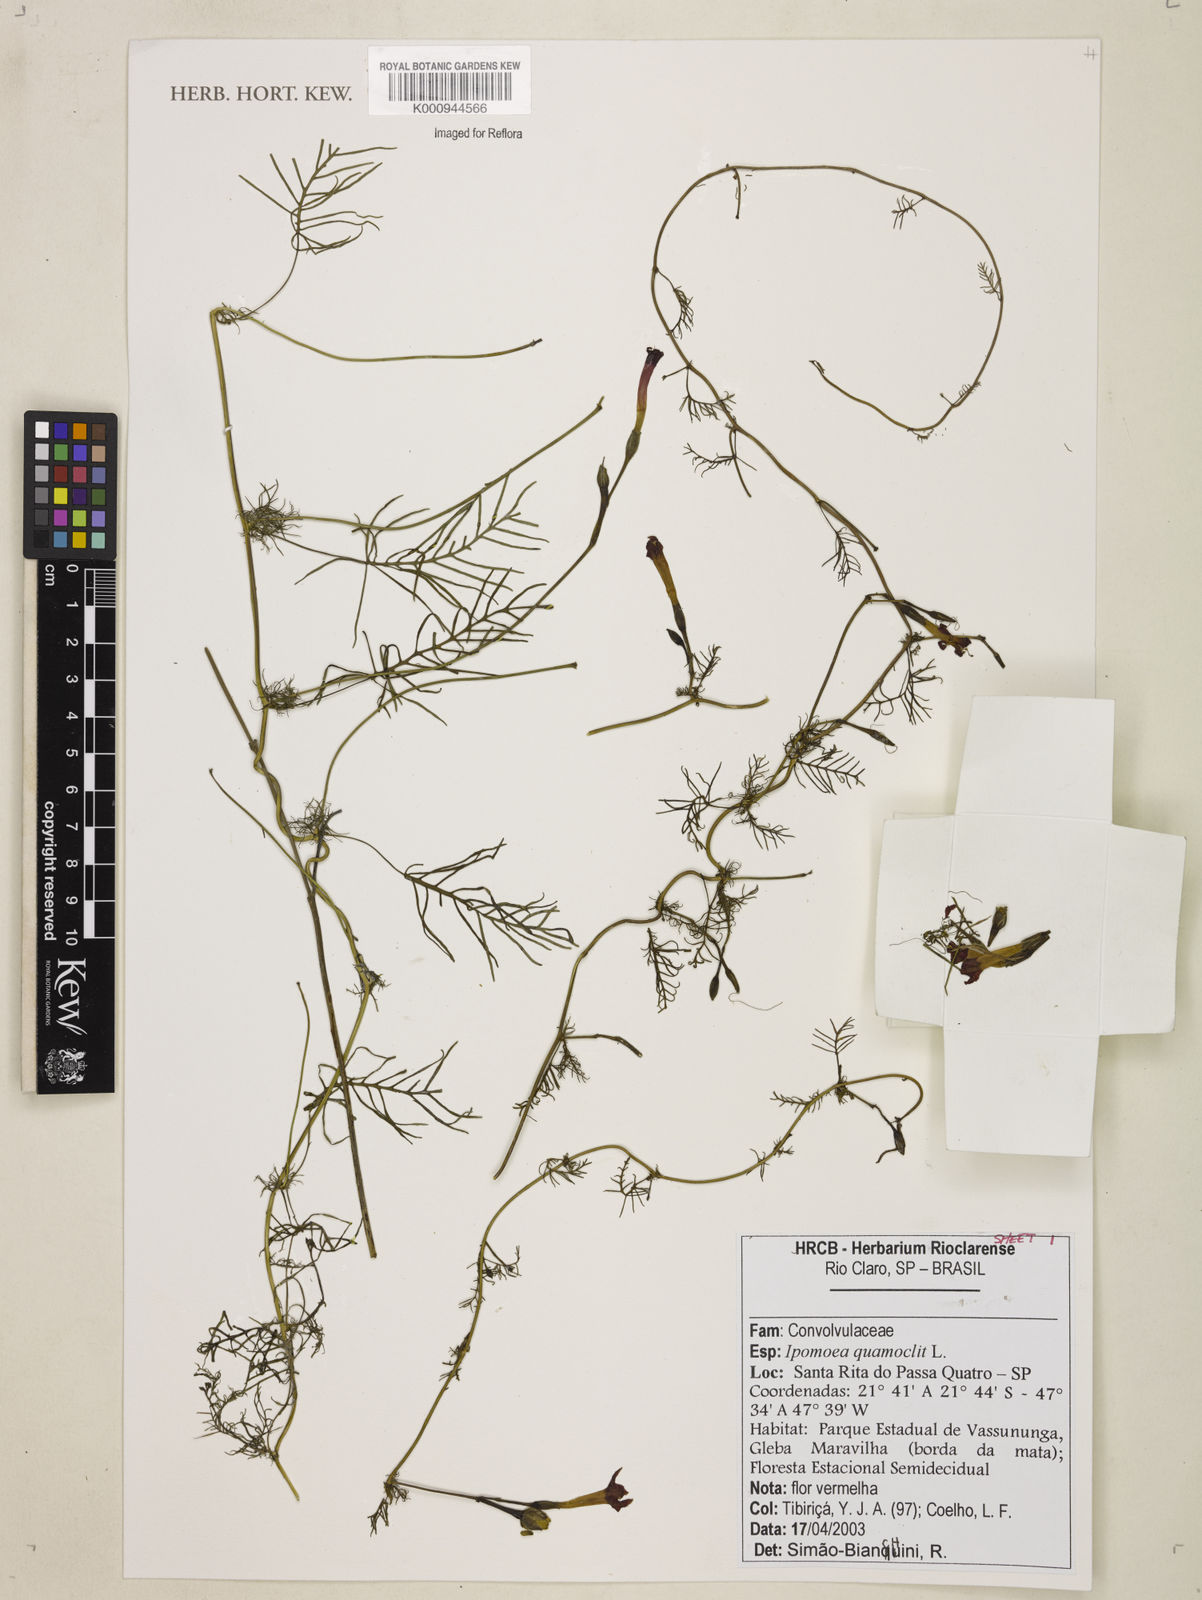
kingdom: Plantae
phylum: Tracheophyta
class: Magnoliopsida
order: Solanales
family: Convolvulaceae
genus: Ipomoea
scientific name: Ipomoea quamoclit
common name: Cypress vine
